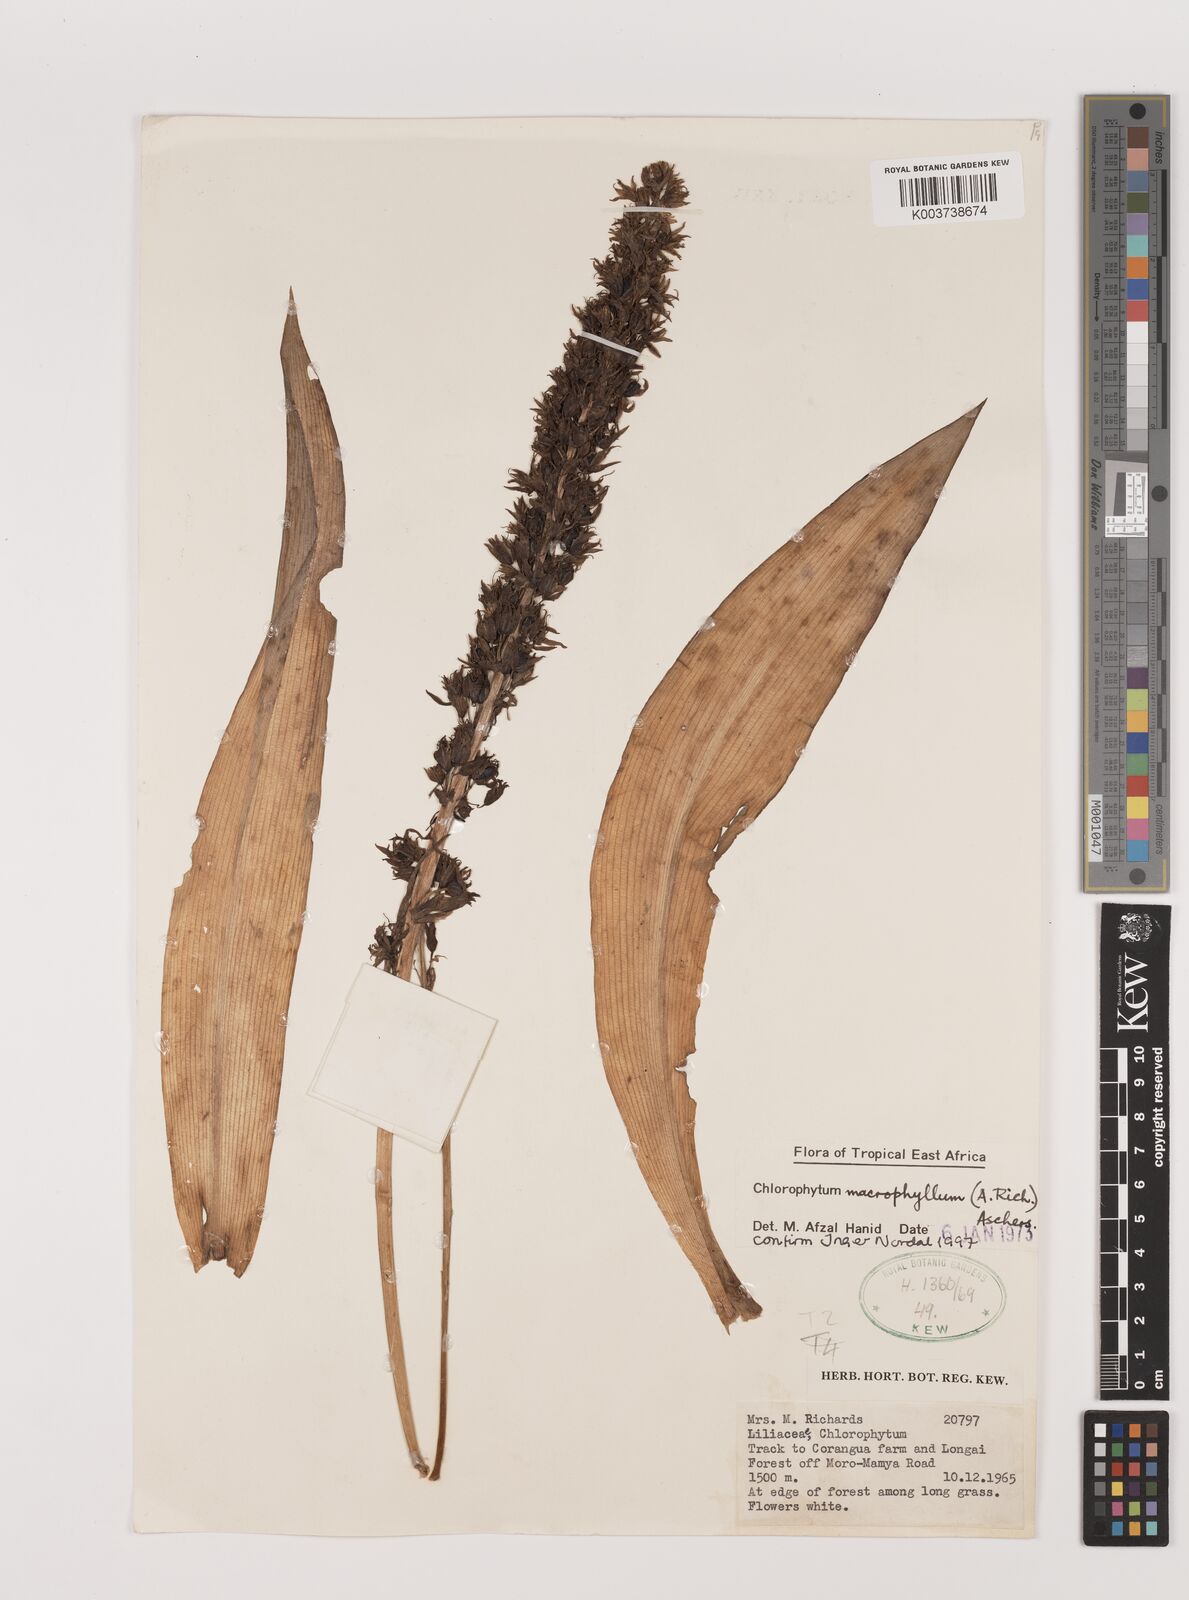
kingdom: Plantae
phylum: Tracheophyta
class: Liliopsida
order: Asparagales
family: Asparagaceae
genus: Chlorophytum
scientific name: Chlorophytum macrophyllum
